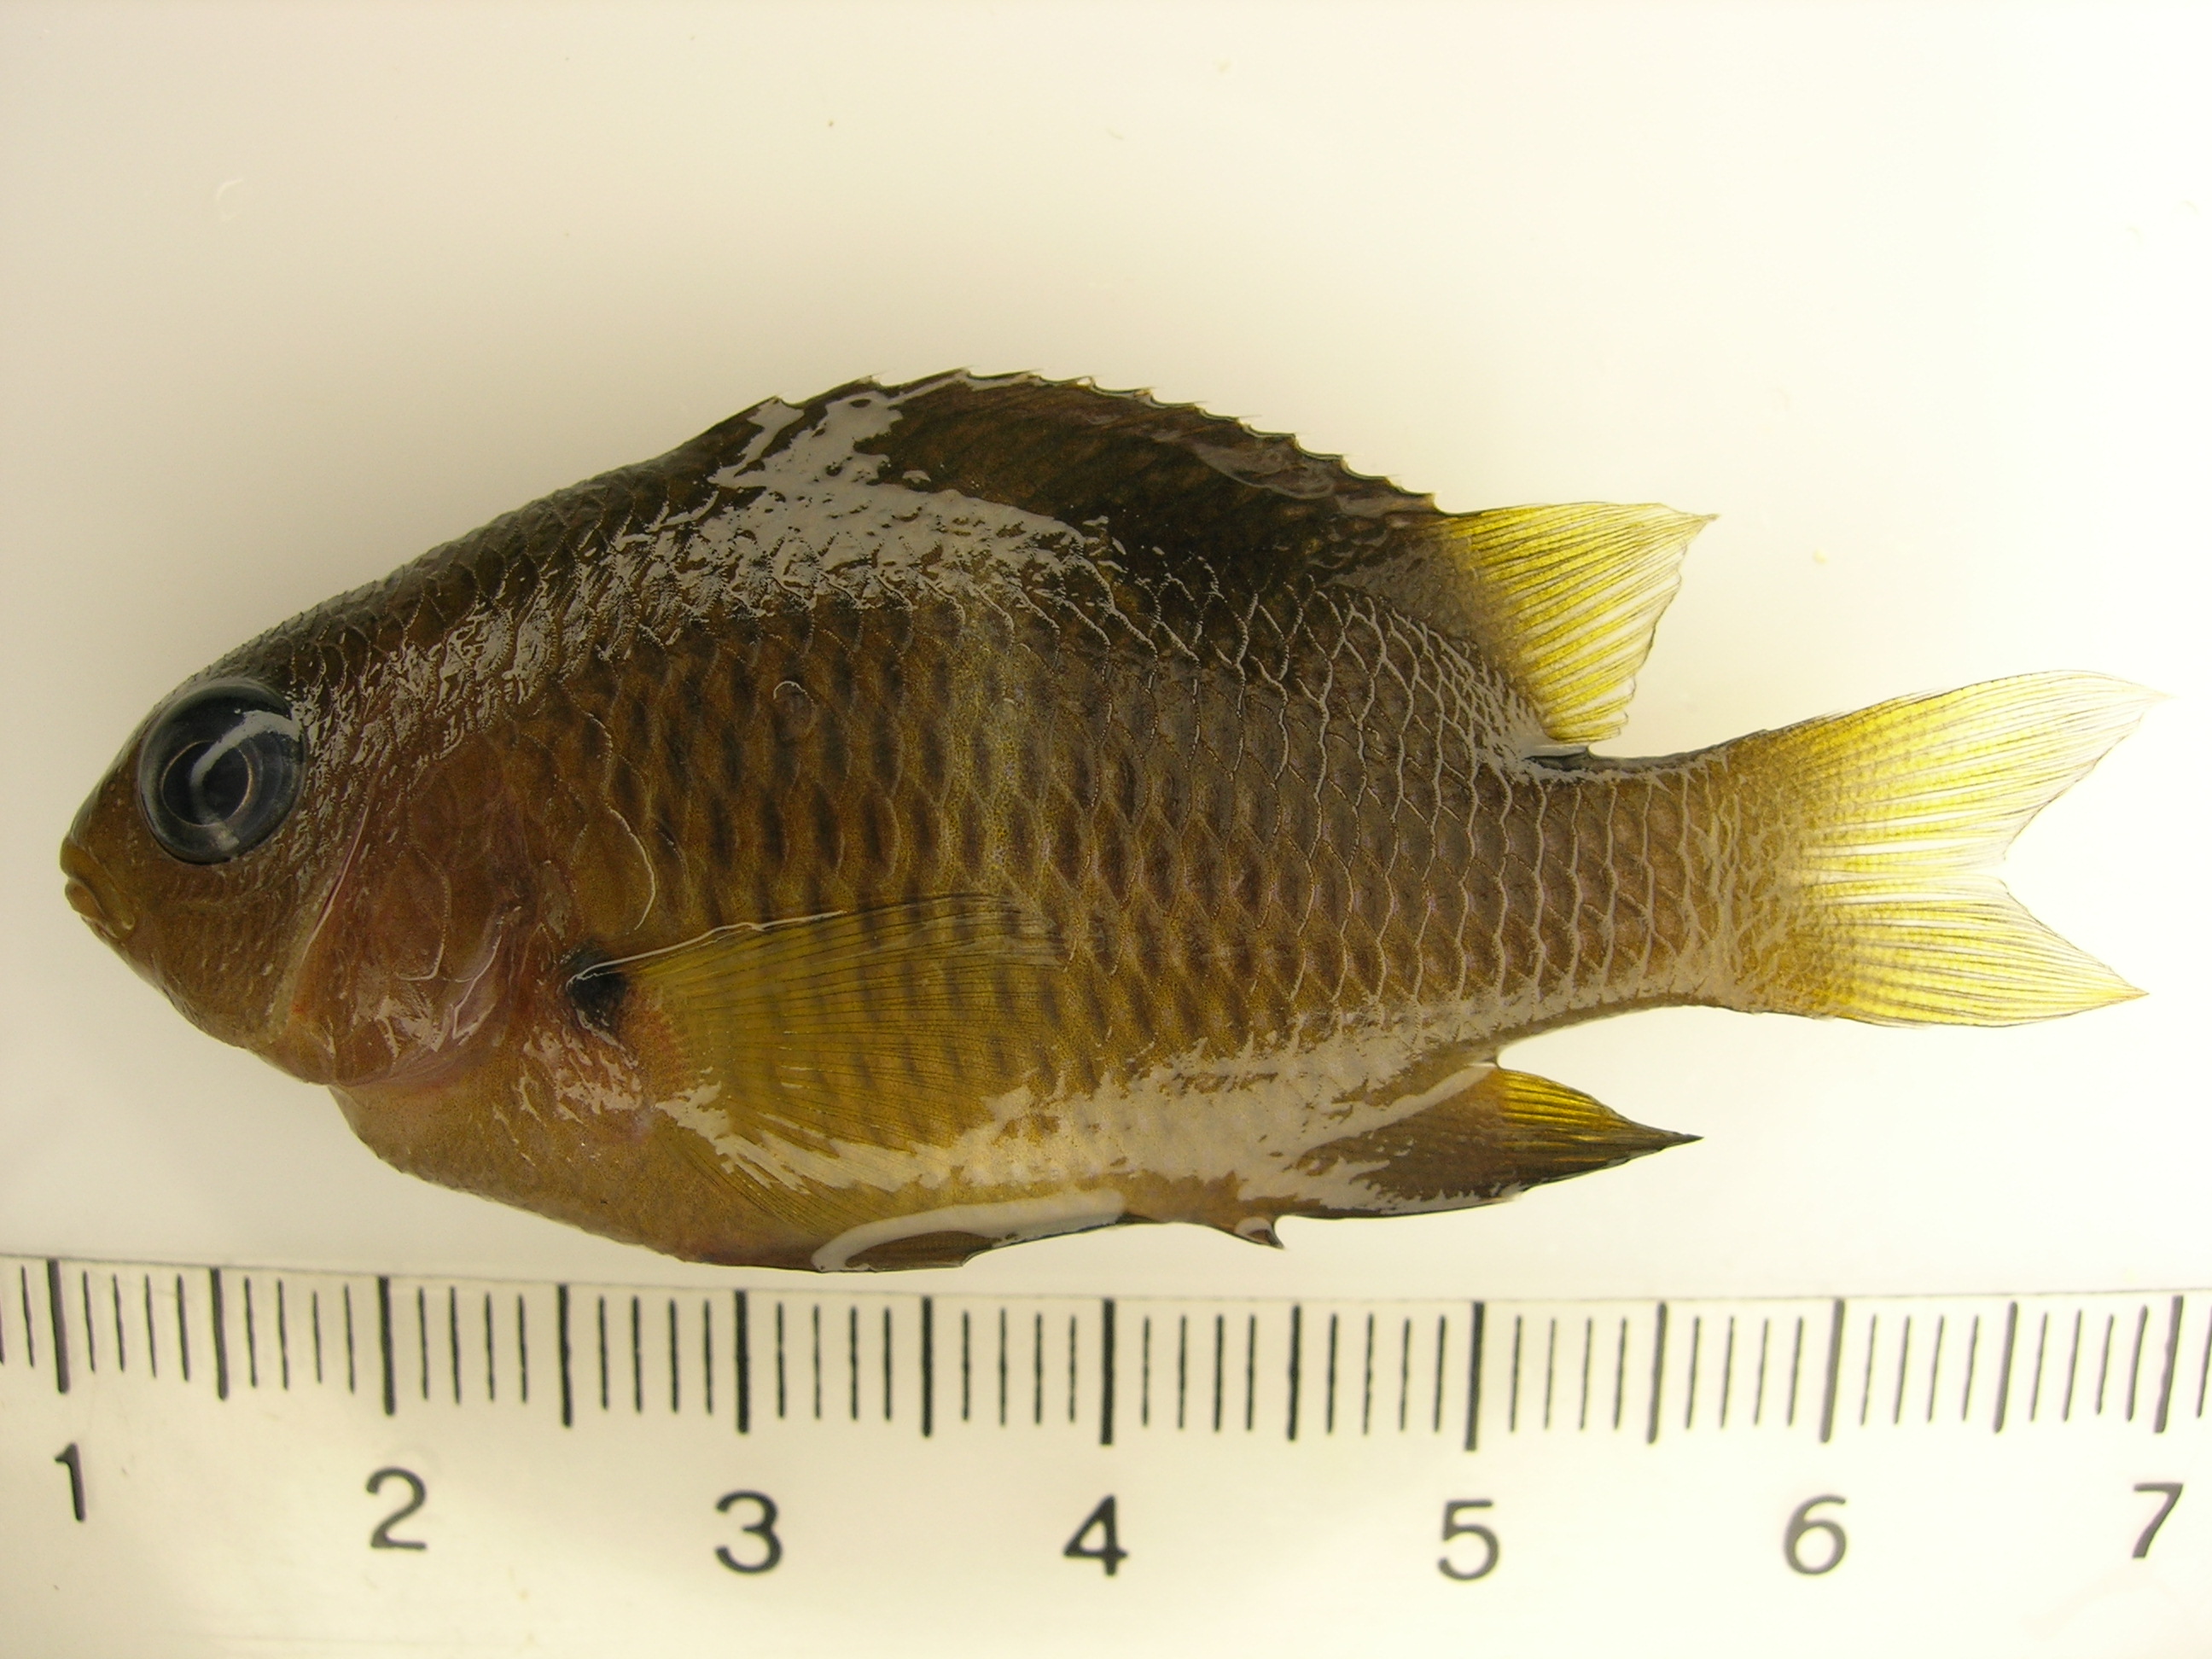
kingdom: Animalia
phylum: Chordata
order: Perciformes
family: Pomacentridae
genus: Plectroglyphidodon
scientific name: Plectroglyphidodon leucozonus
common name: White-band damsel
